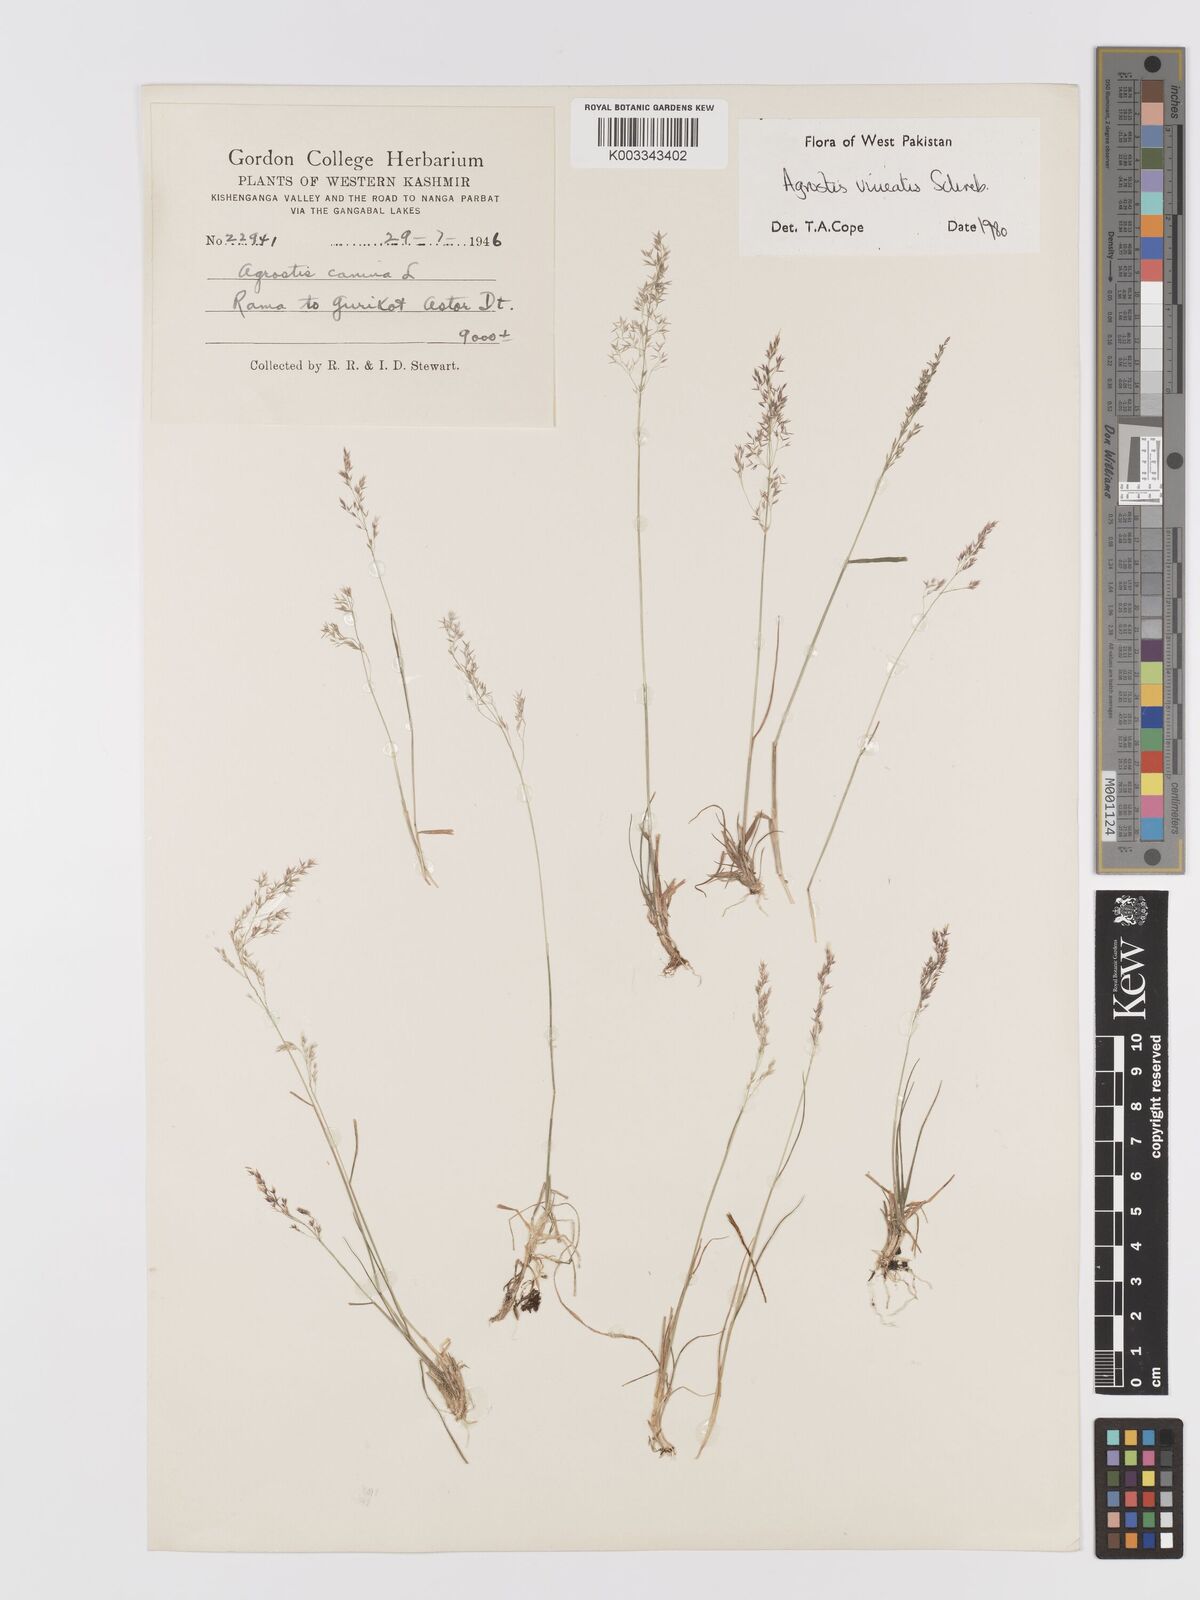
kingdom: Plantae
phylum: Tracheophyta
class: Liliopsida
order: Poales
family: Poaceae
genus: Agrostis
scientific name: Agrostis vinealis
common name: Brown bent
